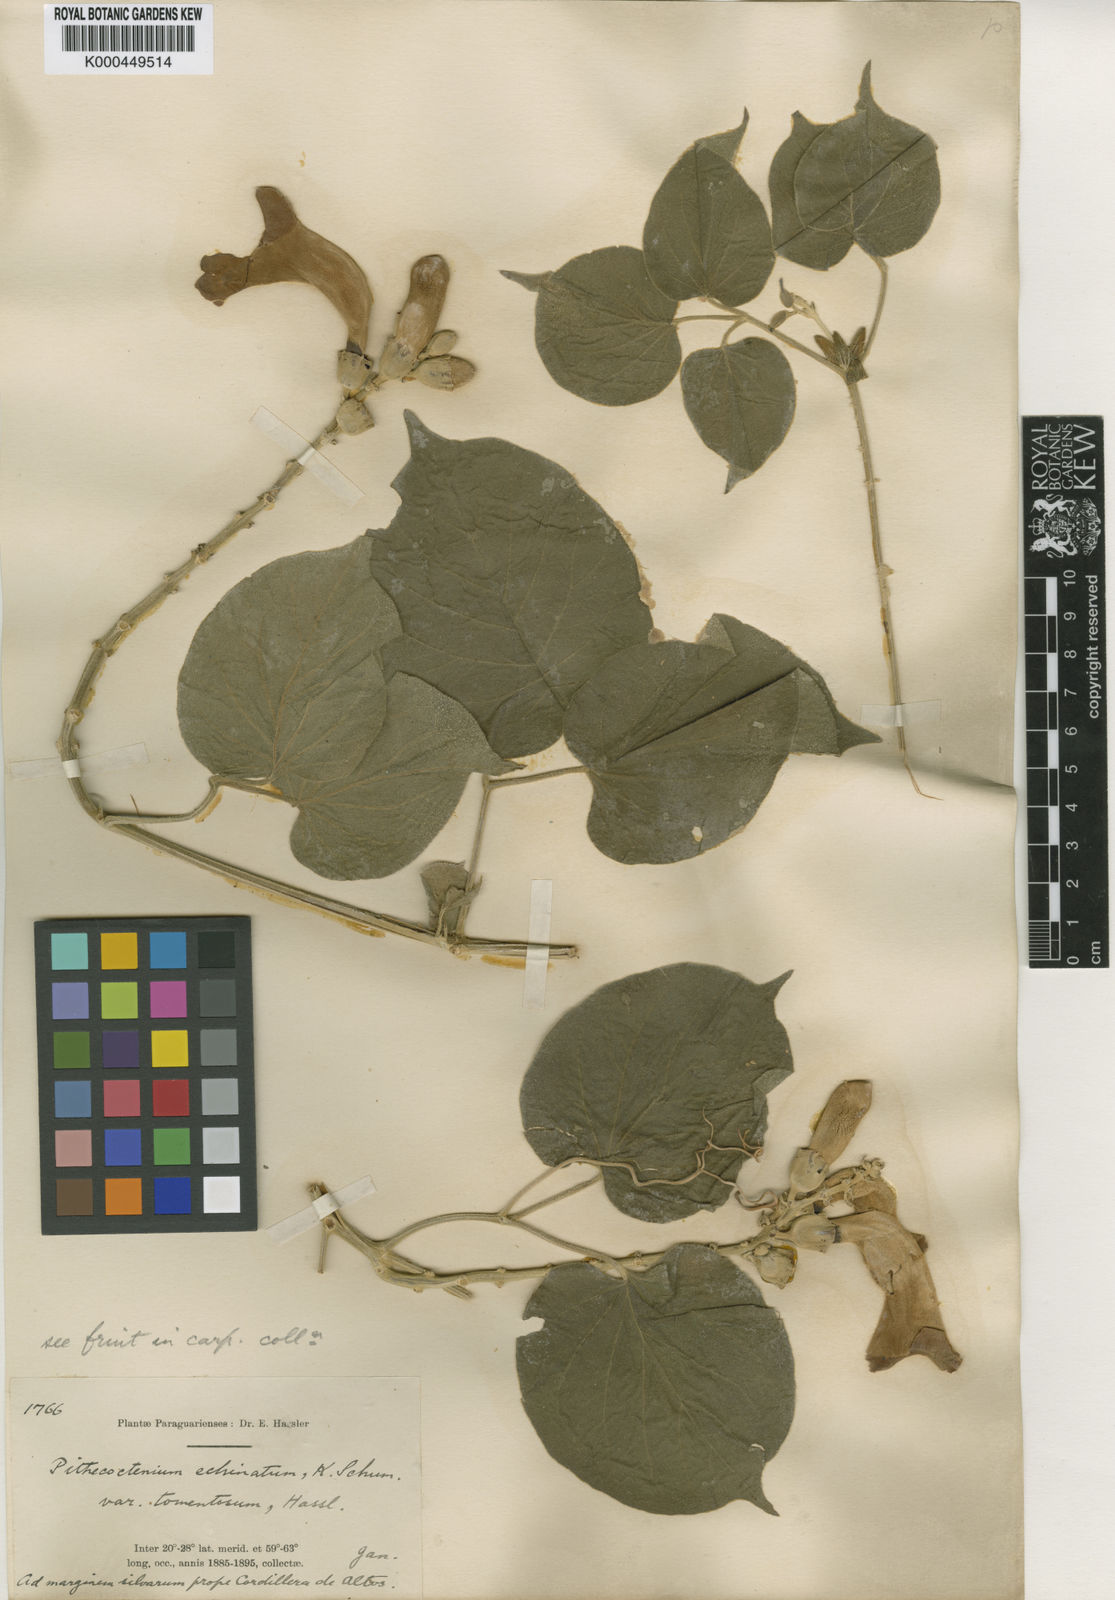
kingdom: Plantae
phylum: Tracheophyta
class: Magnoliopsida
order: Lamiales
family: Bignoniaceae
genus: Amphilophium
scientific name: Amphilophium crucigerum
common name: Monkey comb
